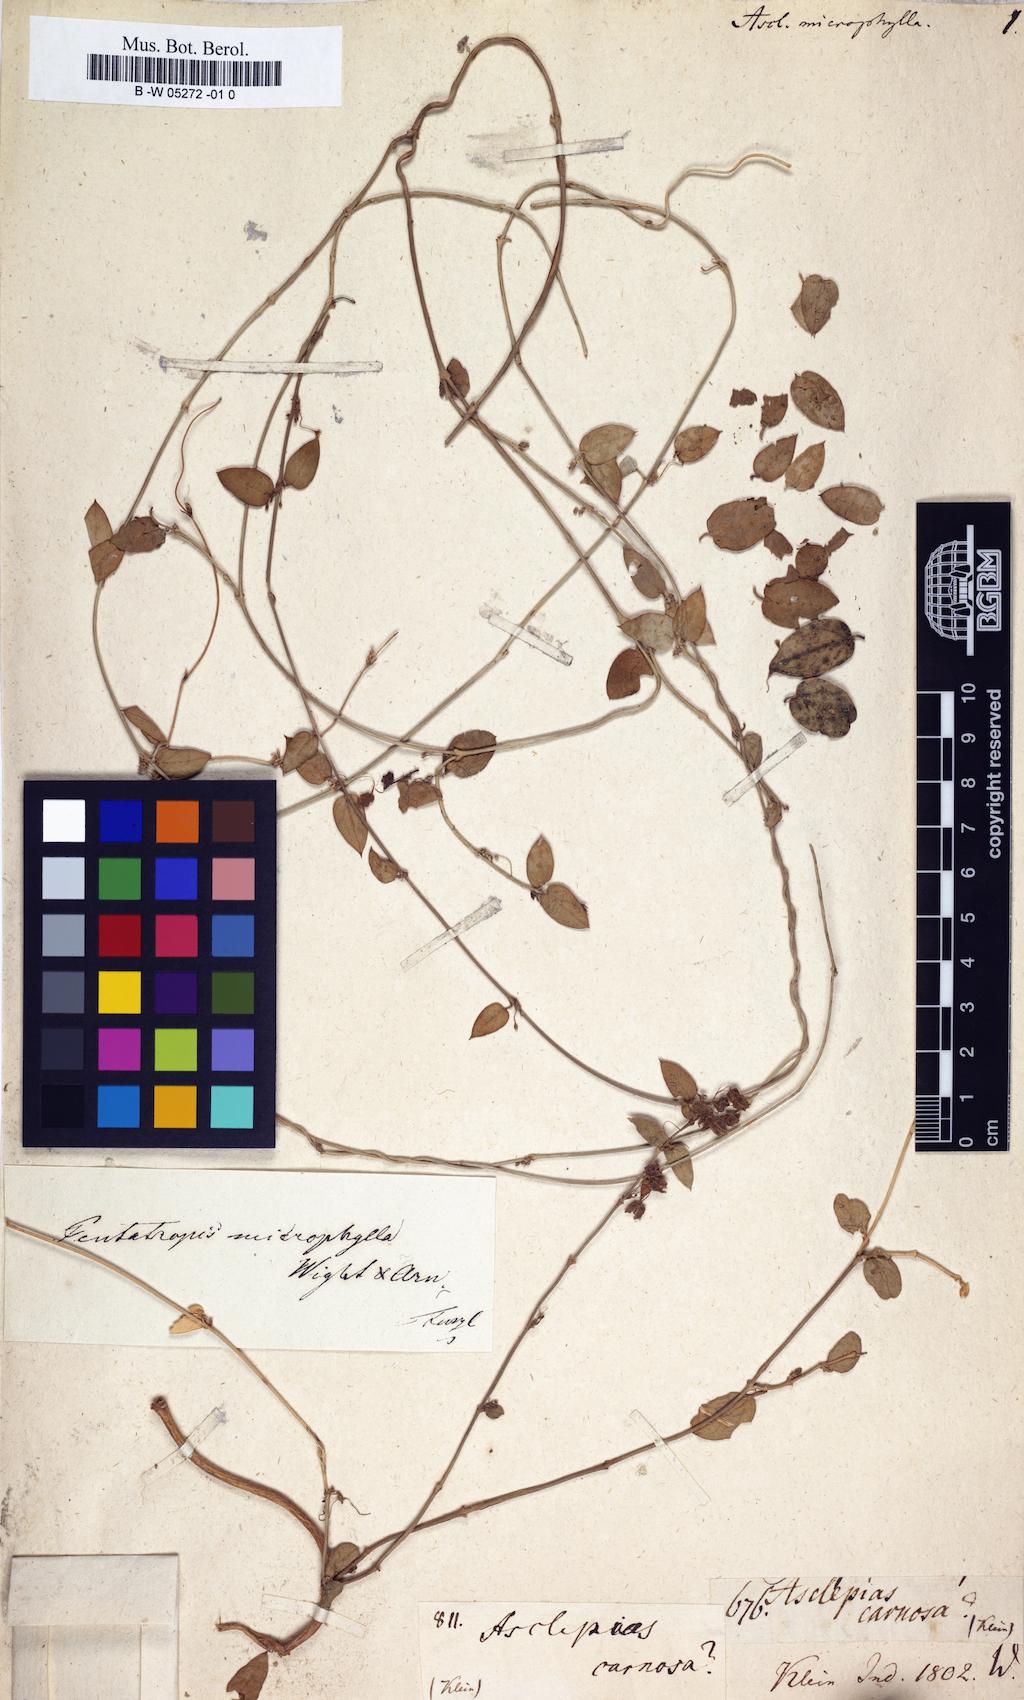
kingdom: Plantae
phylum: Tracheophyta
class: Magnoliopsida
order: Gentianales
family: Apocynaceae
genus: Pentatropis
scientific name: Pentatropis capensis
